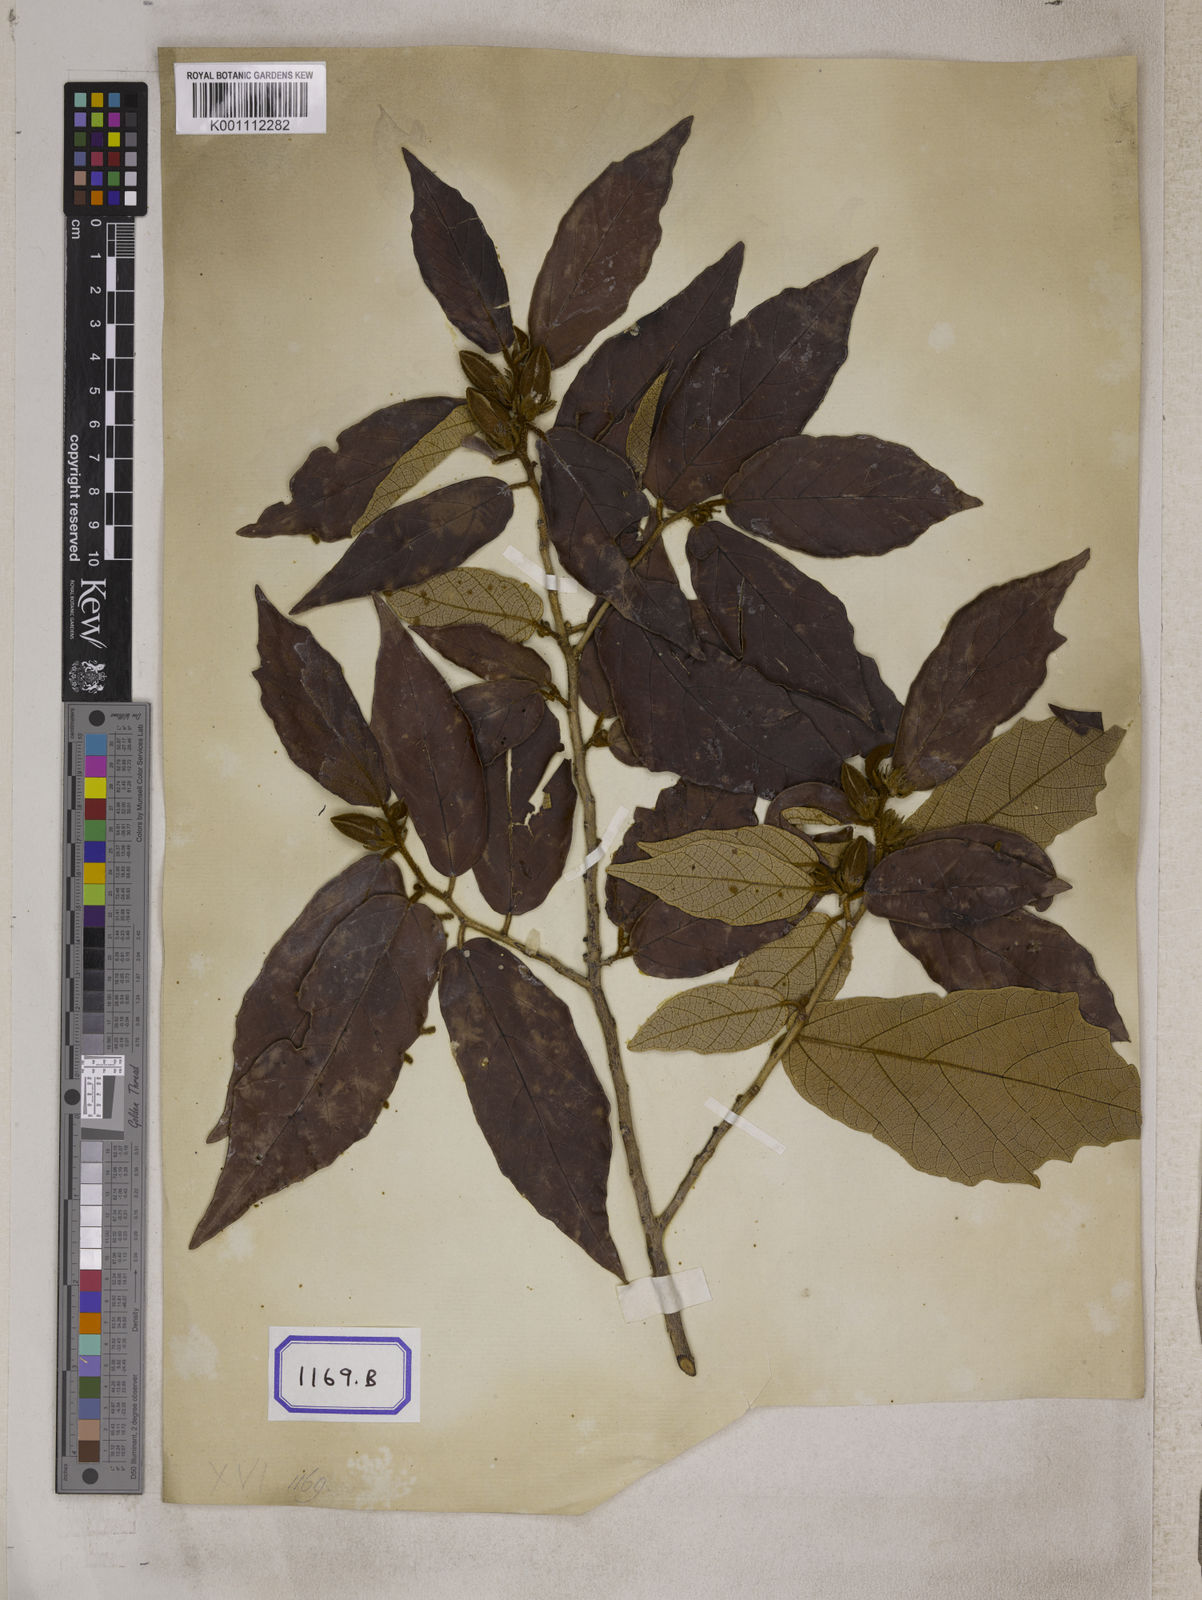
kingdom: Plantae
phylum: Tracheophyta
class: Magnoliopsida
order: Malvales
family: Malvaceae
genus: Pterospermum
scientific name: Pterospermum
